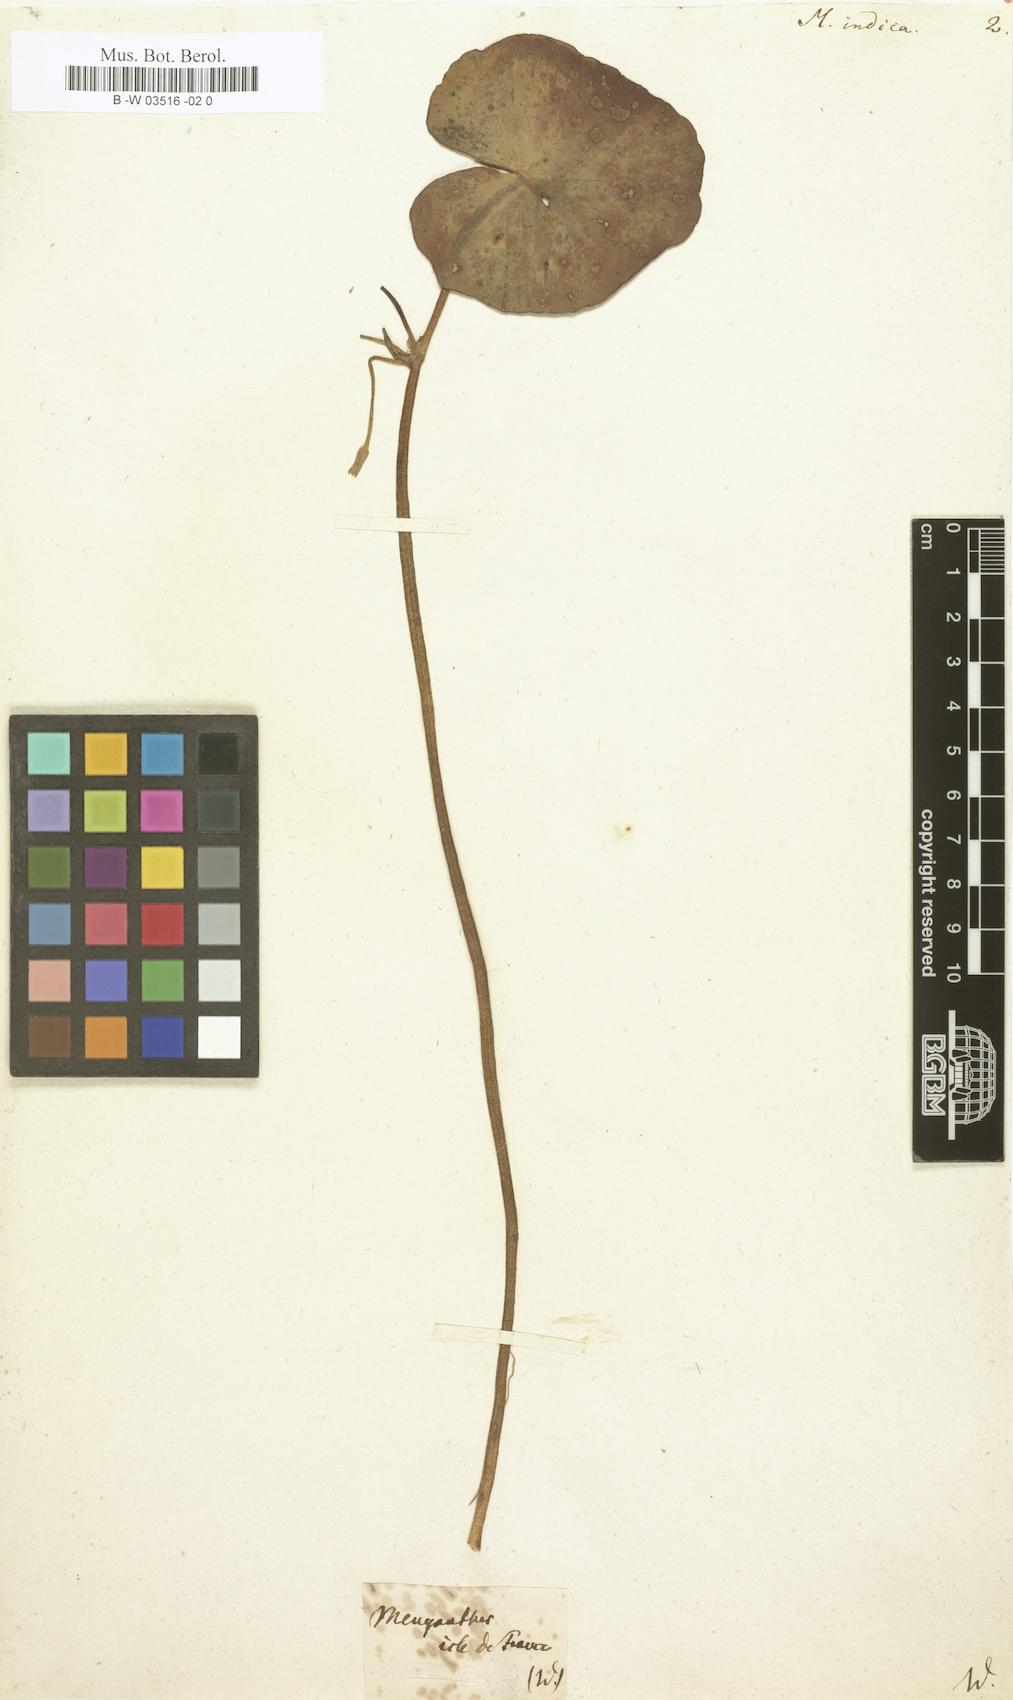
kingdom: Plantae
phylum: Tracheophyta
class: Magnoliopsida
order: Asterales
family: Menyanthaceae
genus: Nymphoides
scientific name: Nymphoides indica
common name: Water-snowflake
